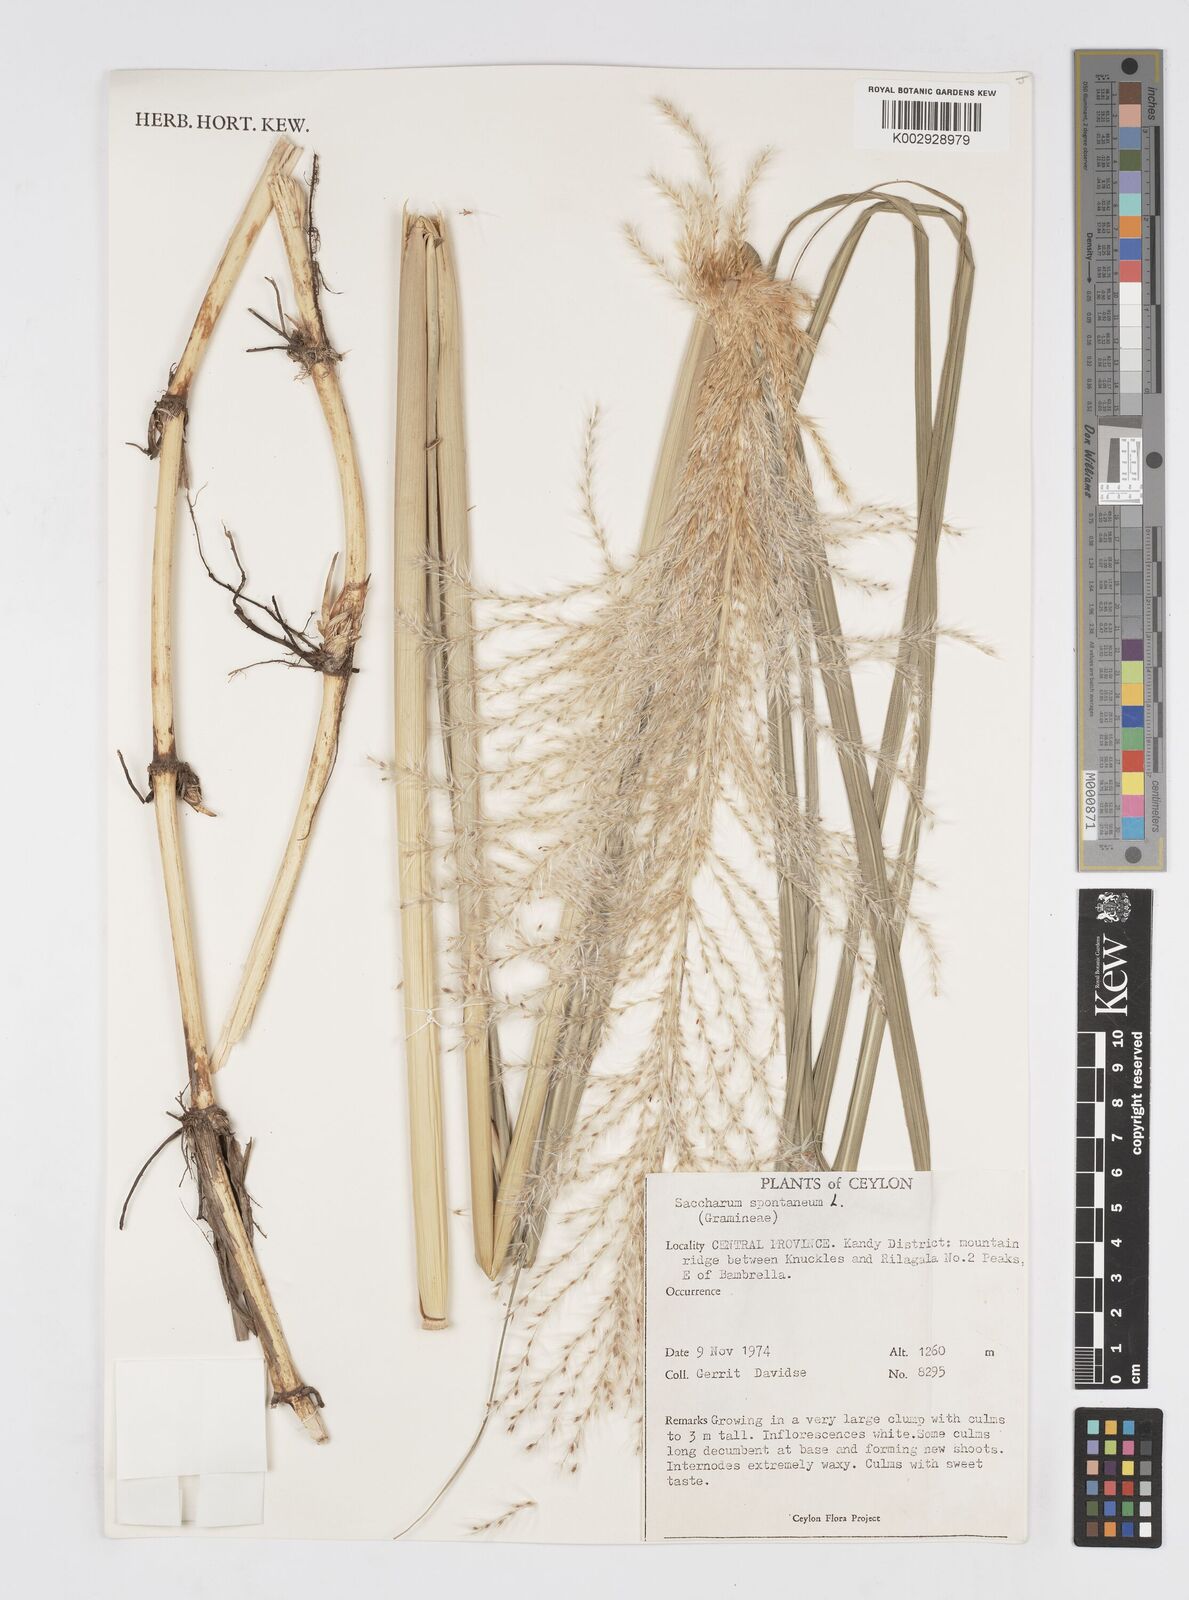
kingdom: Plantae
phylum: Tracheophyta
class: Liliopsida
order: Poales
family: Poaceae
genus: Saccharum
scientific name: Saccharum spontaneum
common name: Wild sugarcane
